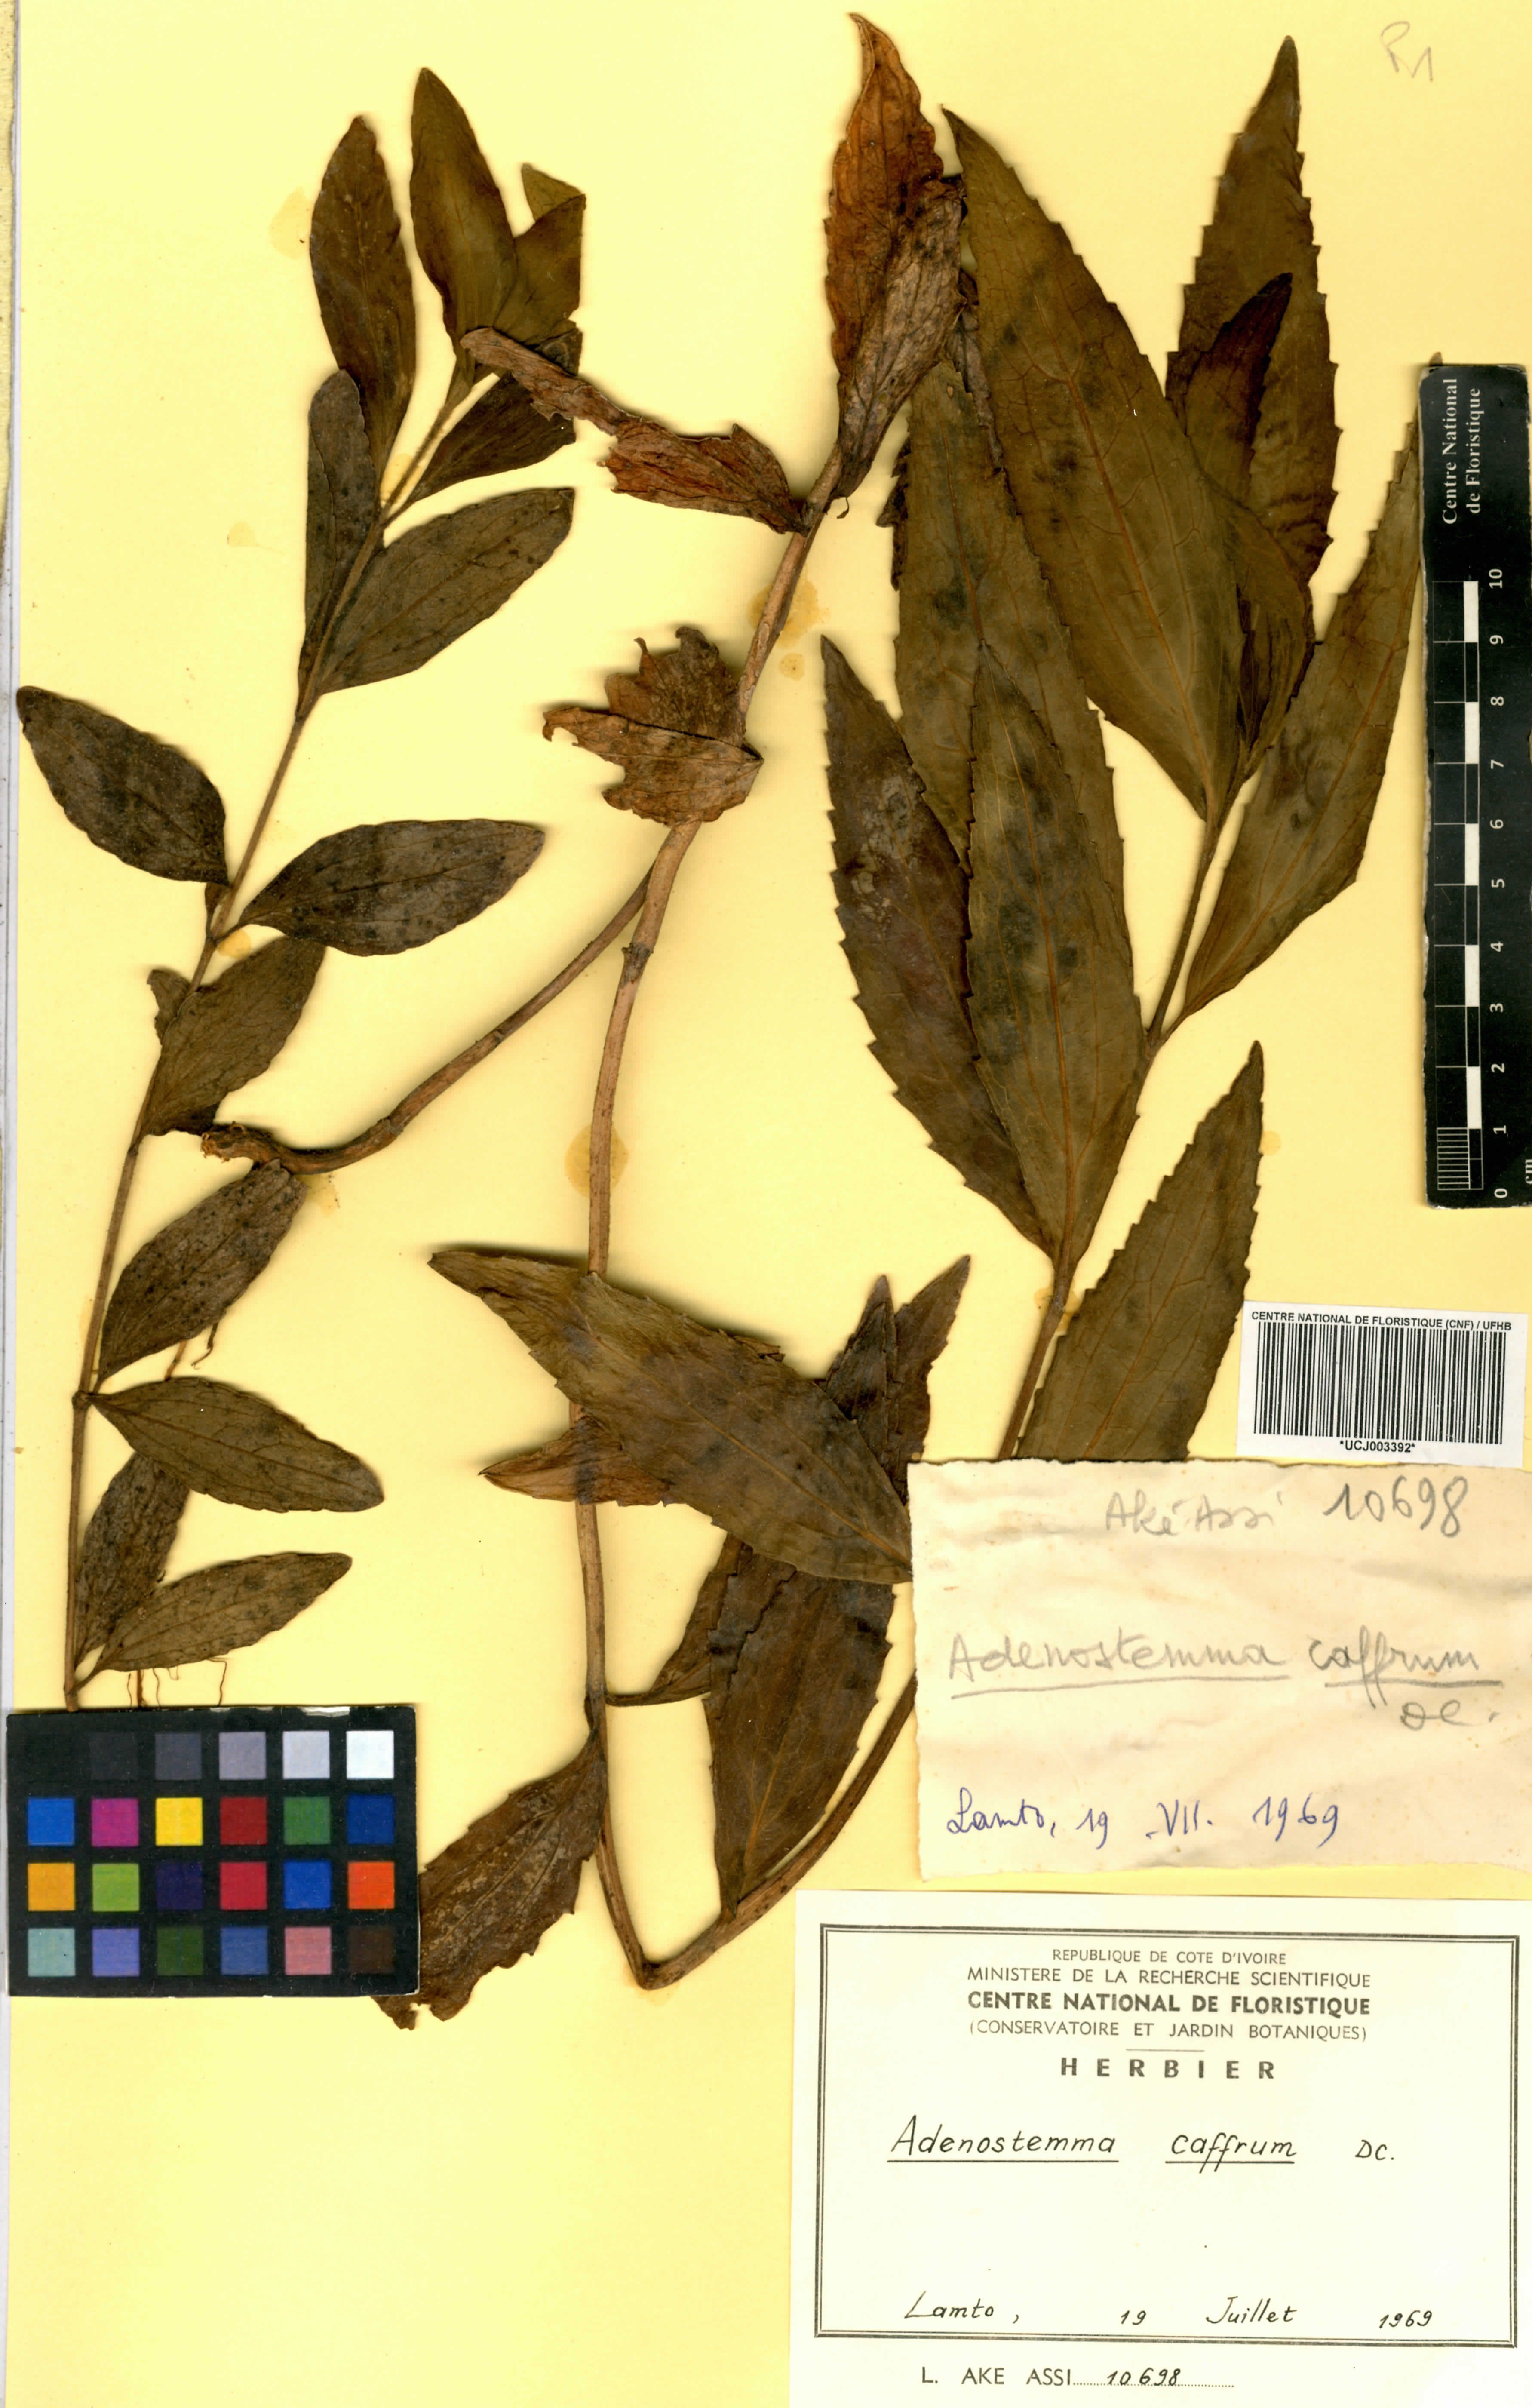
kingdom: Plantae
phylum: Tracheophyta
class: Magnoliopsida
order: Asterales
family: Asteraceae
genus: Adenostemma
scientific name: Adenostemma caffrum
